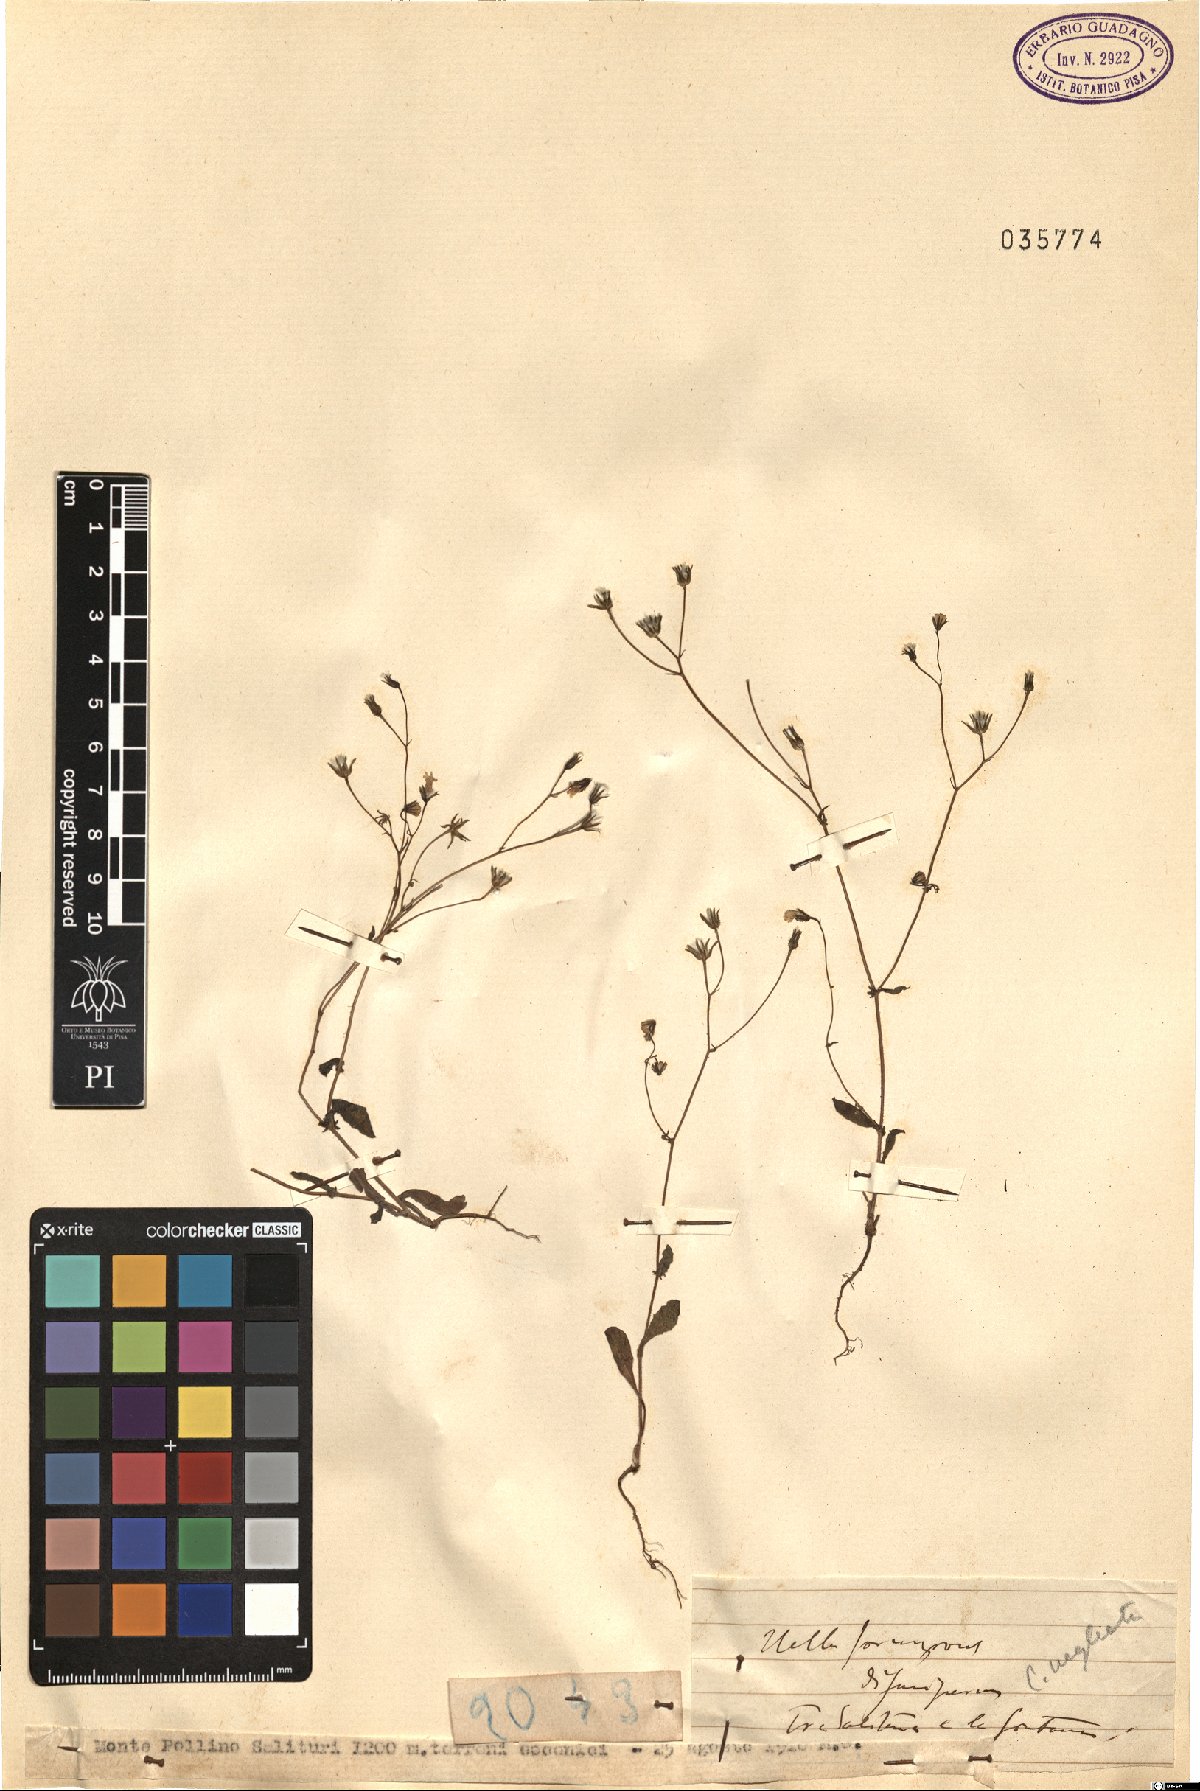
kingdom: Plantae
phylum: Tracheophyta
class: Magnoliopsida
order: Asterales
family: Asteraceae
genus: Crepis
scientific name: Crepis neglecta
